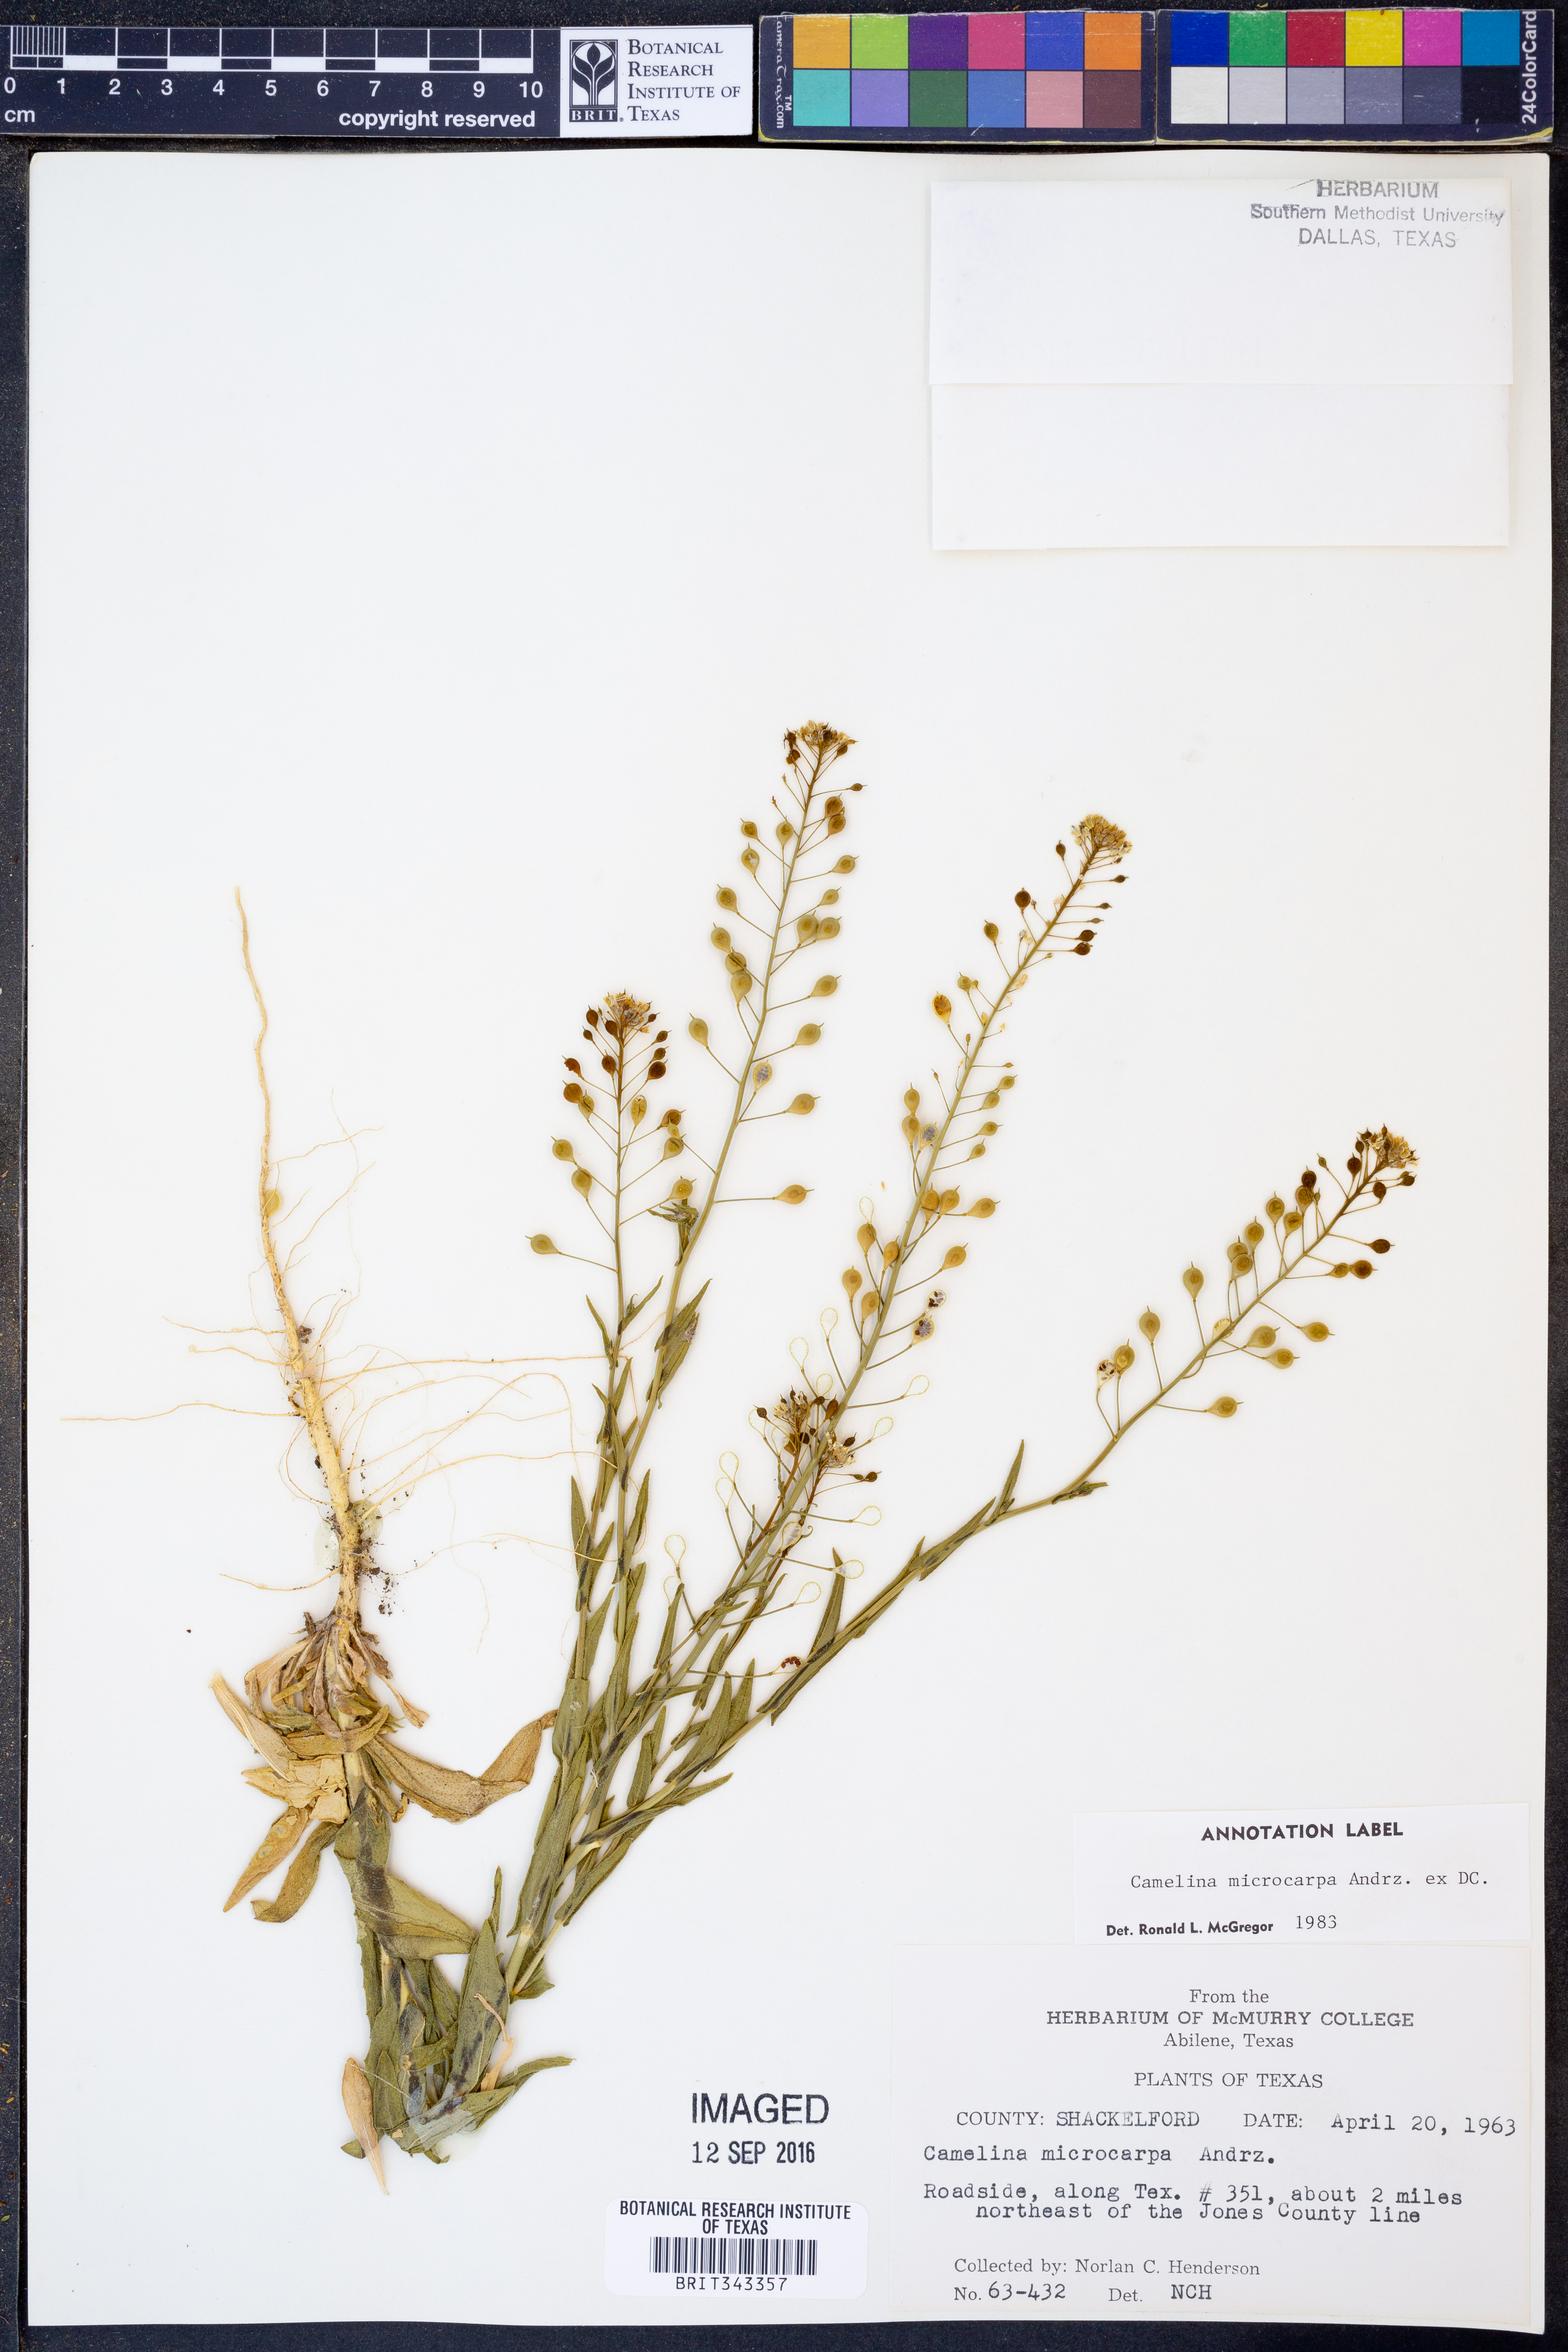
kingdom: Plantae
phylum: Tracheophyta
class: Magnoliopsida
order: Brassicales
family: Brassicaceae
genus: Camelina
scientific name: Camelina microcarpa
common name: Lesser gold-of-pleasure
